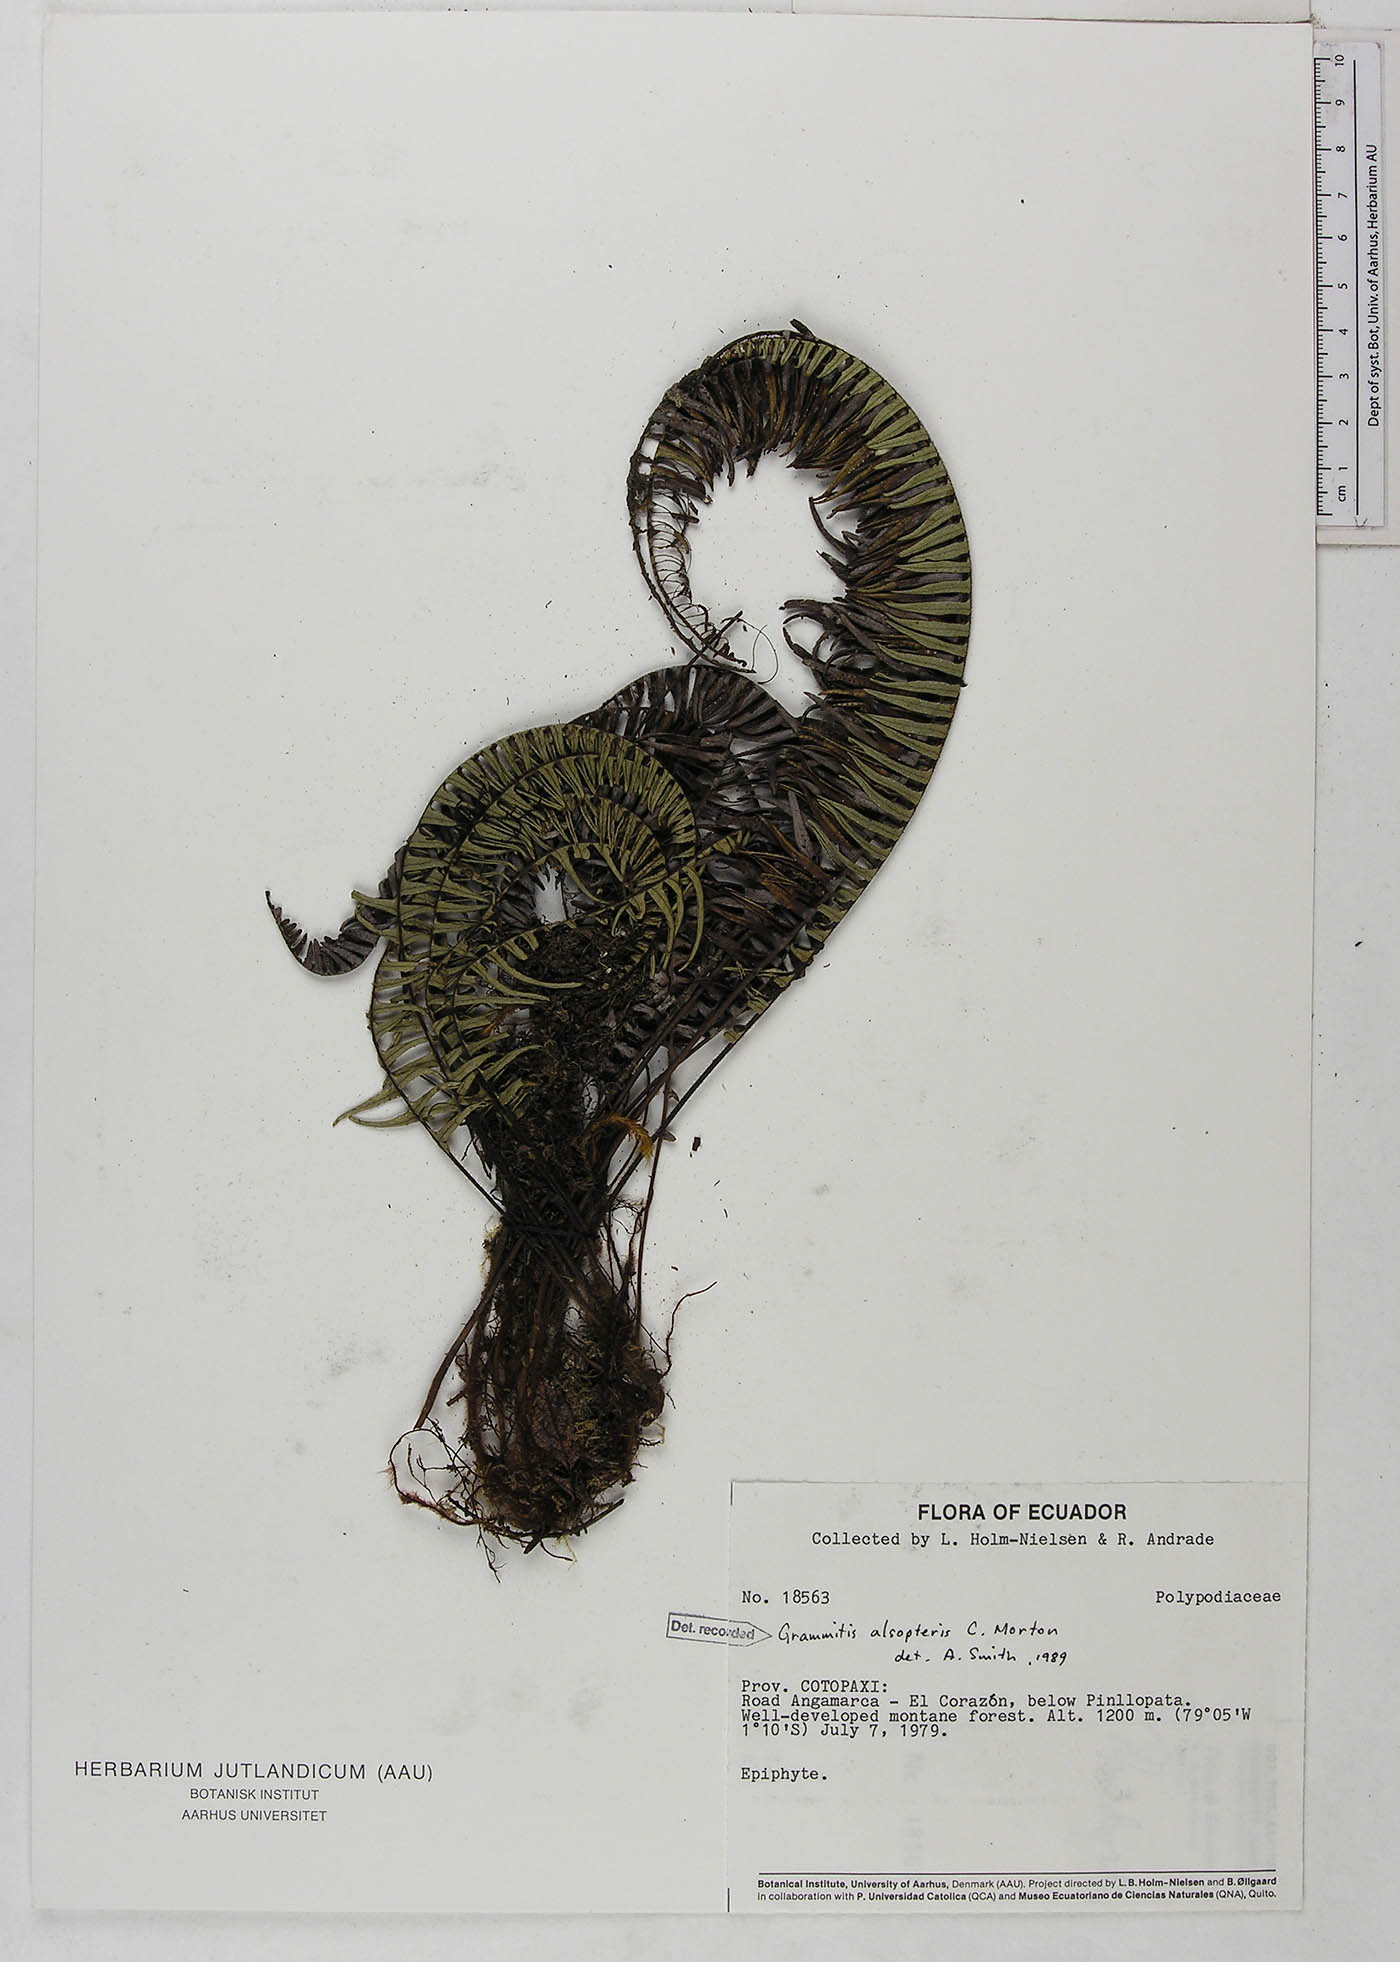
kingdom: Plantae
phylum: Tracheophyta
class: Polypodiopsida
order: Polypodiales
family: Polypodiaceae
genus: Mycopteris
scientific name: Mycopteris alsopteris
